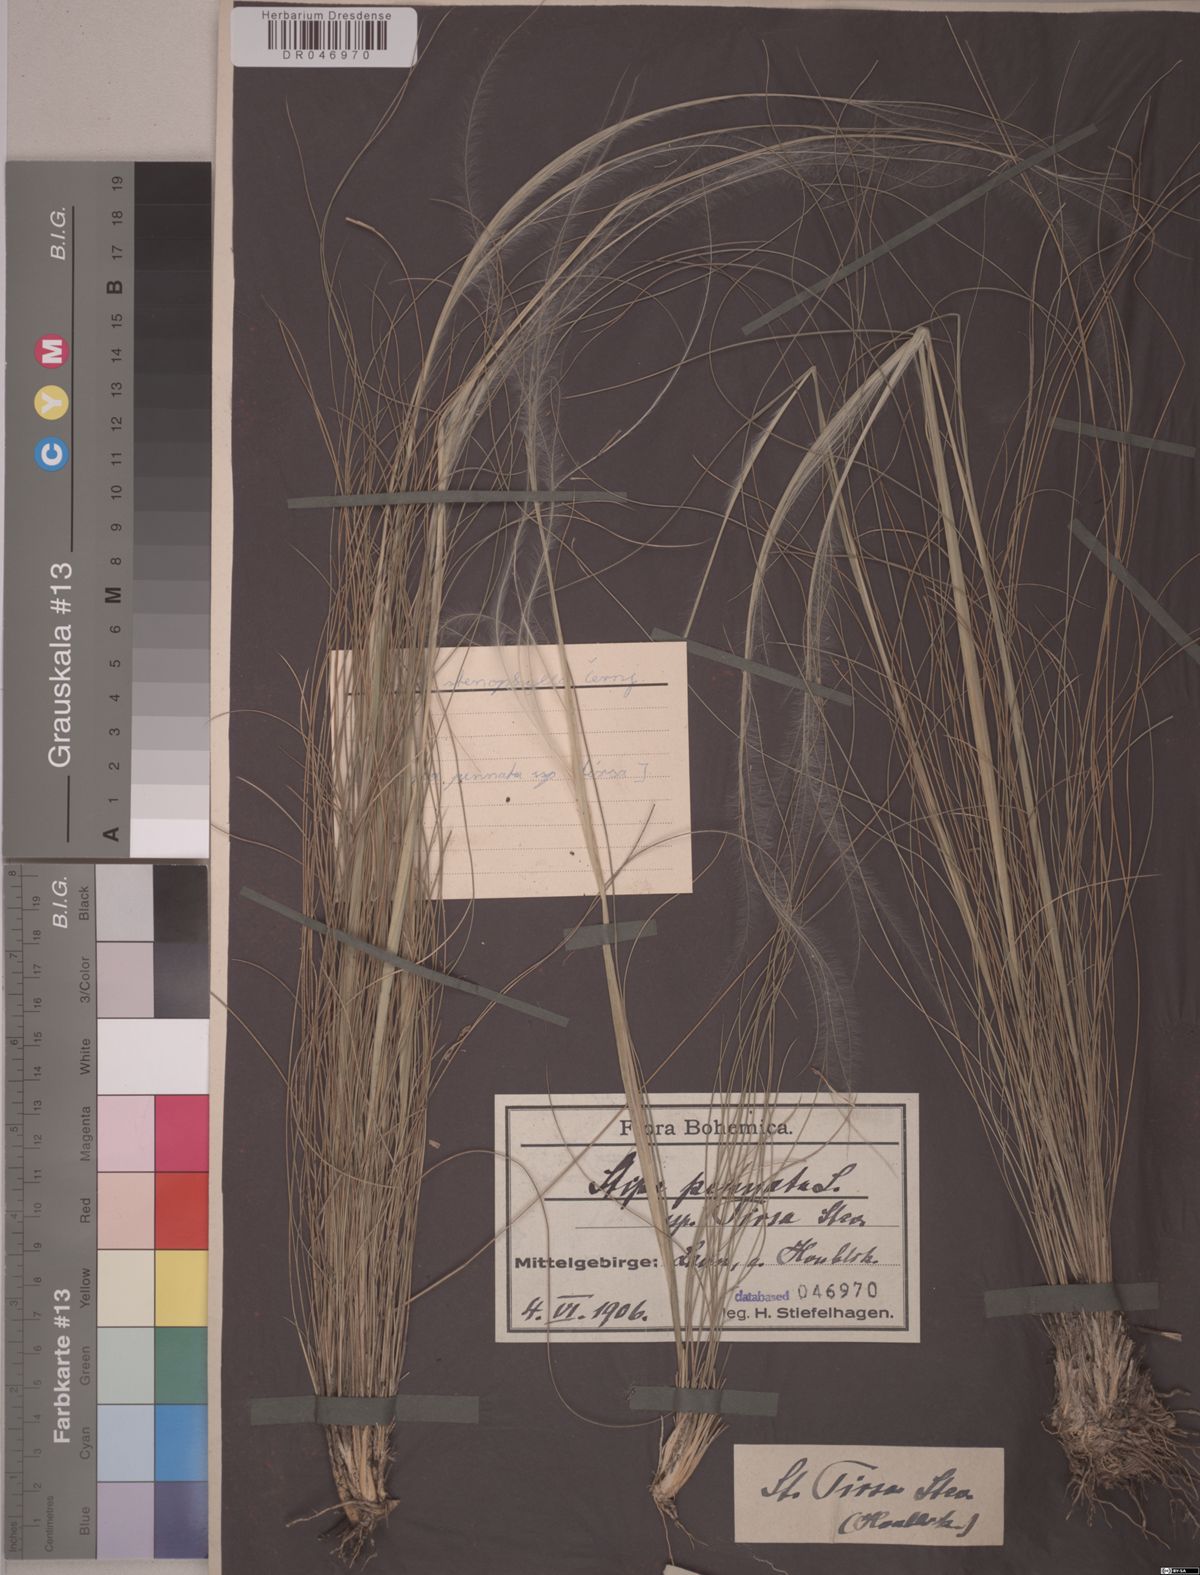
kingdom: Plantae
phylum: Tracheophyta
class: Liliopsida
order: Poales
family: Poaceae
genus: Stipa
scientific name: Stipa tirsa
